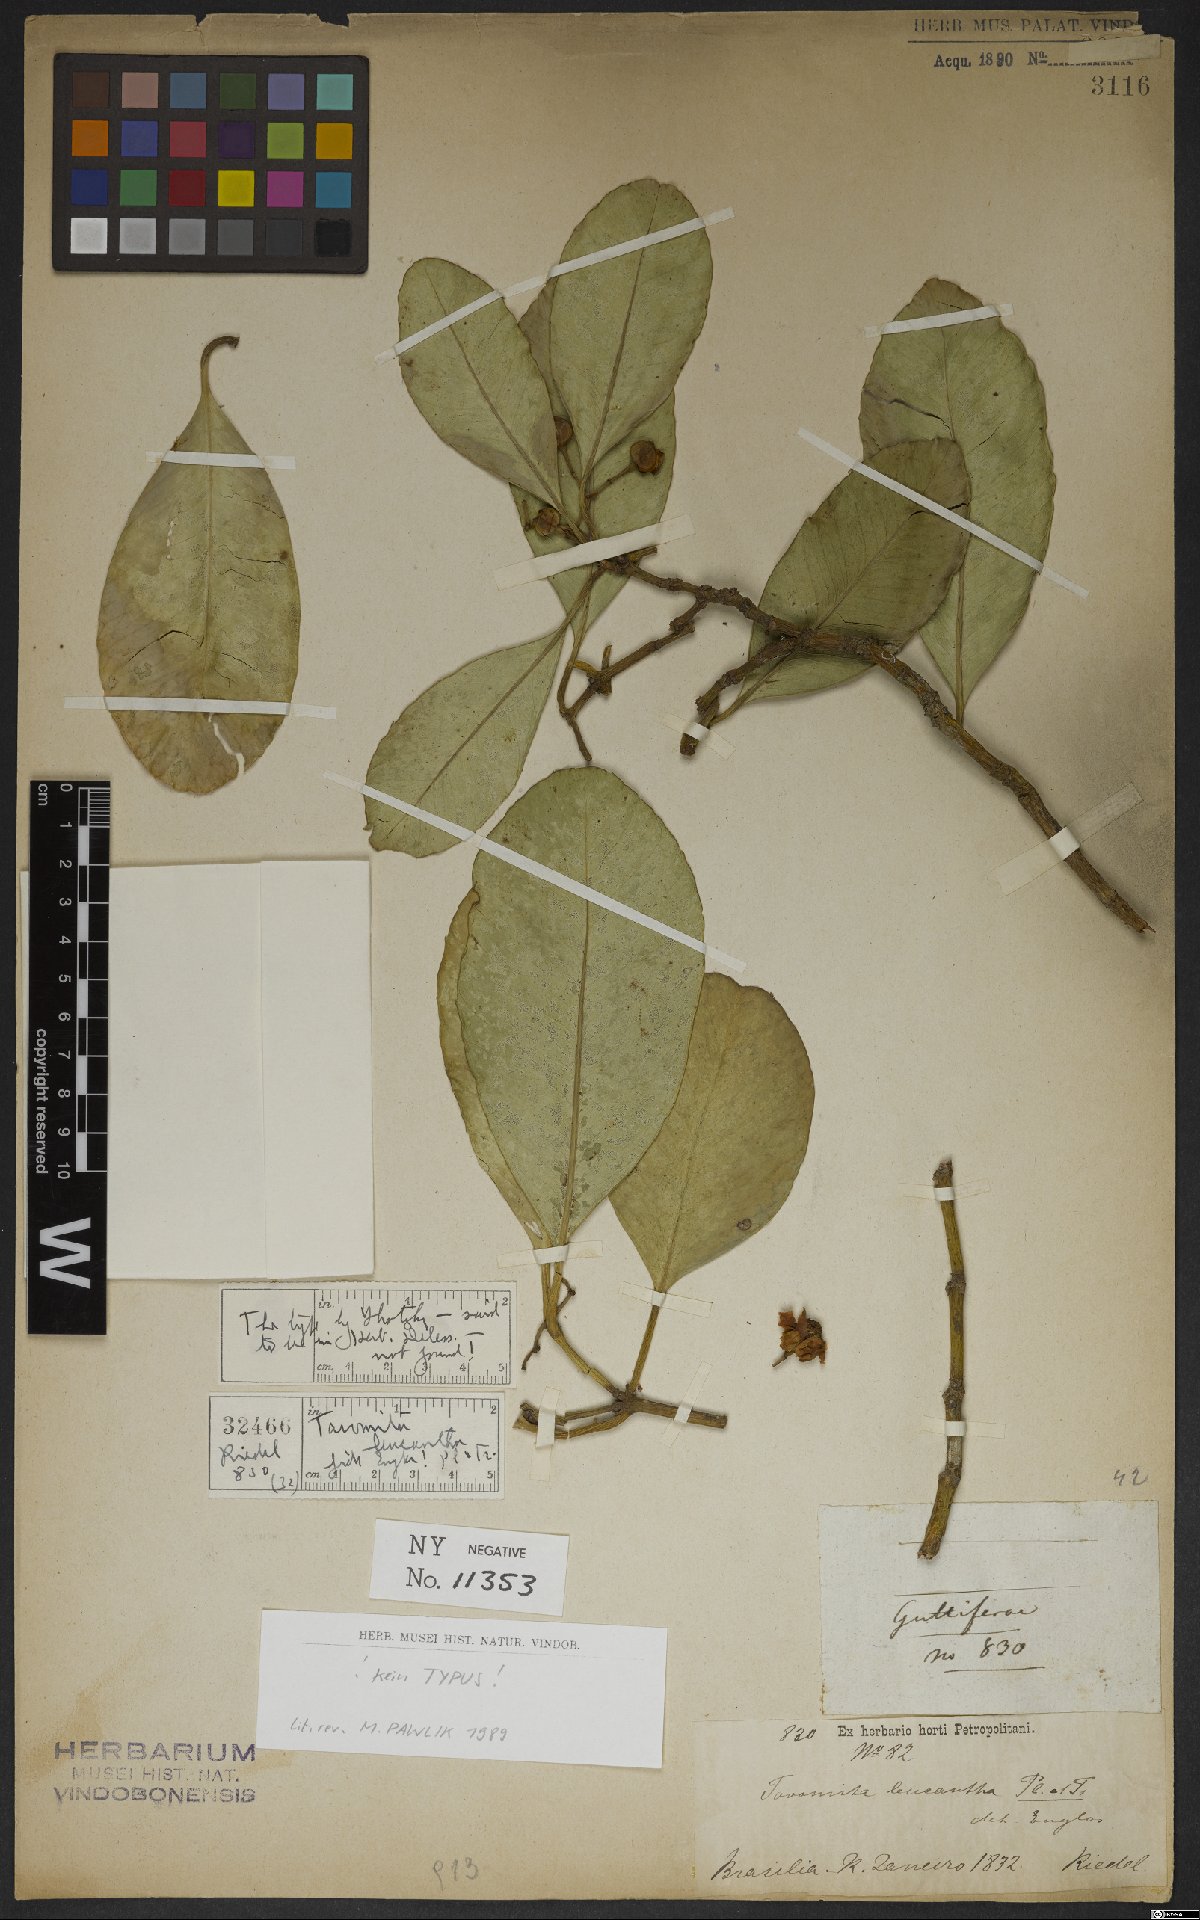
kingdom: Plantae
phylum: Tracheophyta
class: Magnoliopsida
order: Malpighiales
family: Clusiaceae
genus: Tovomita
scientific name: Tovomita leucantha
